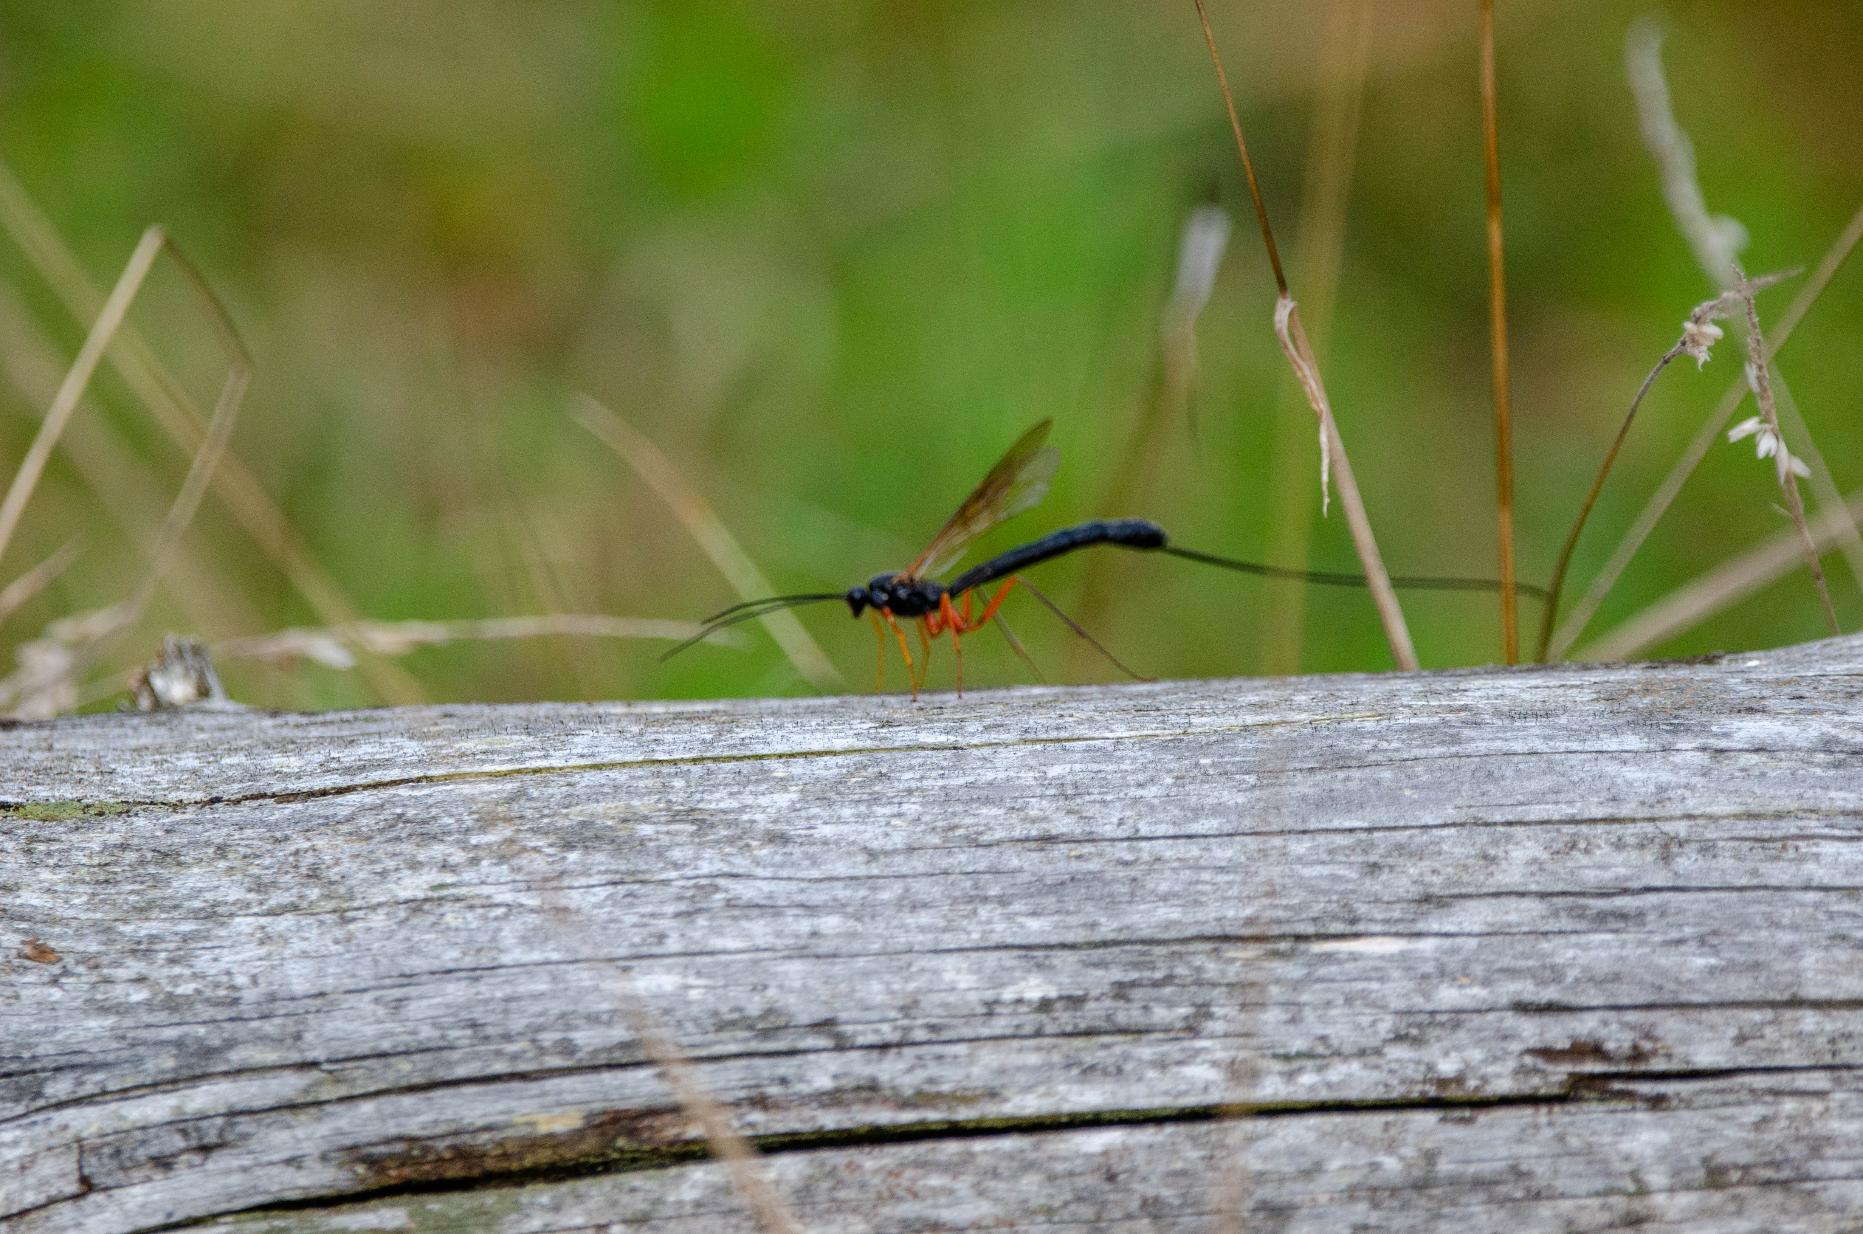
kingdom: Animalia
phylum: Arthropoda
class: Insecta
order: Hymenoptera
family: Ichneumonidae
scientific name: Ichneumonidae
